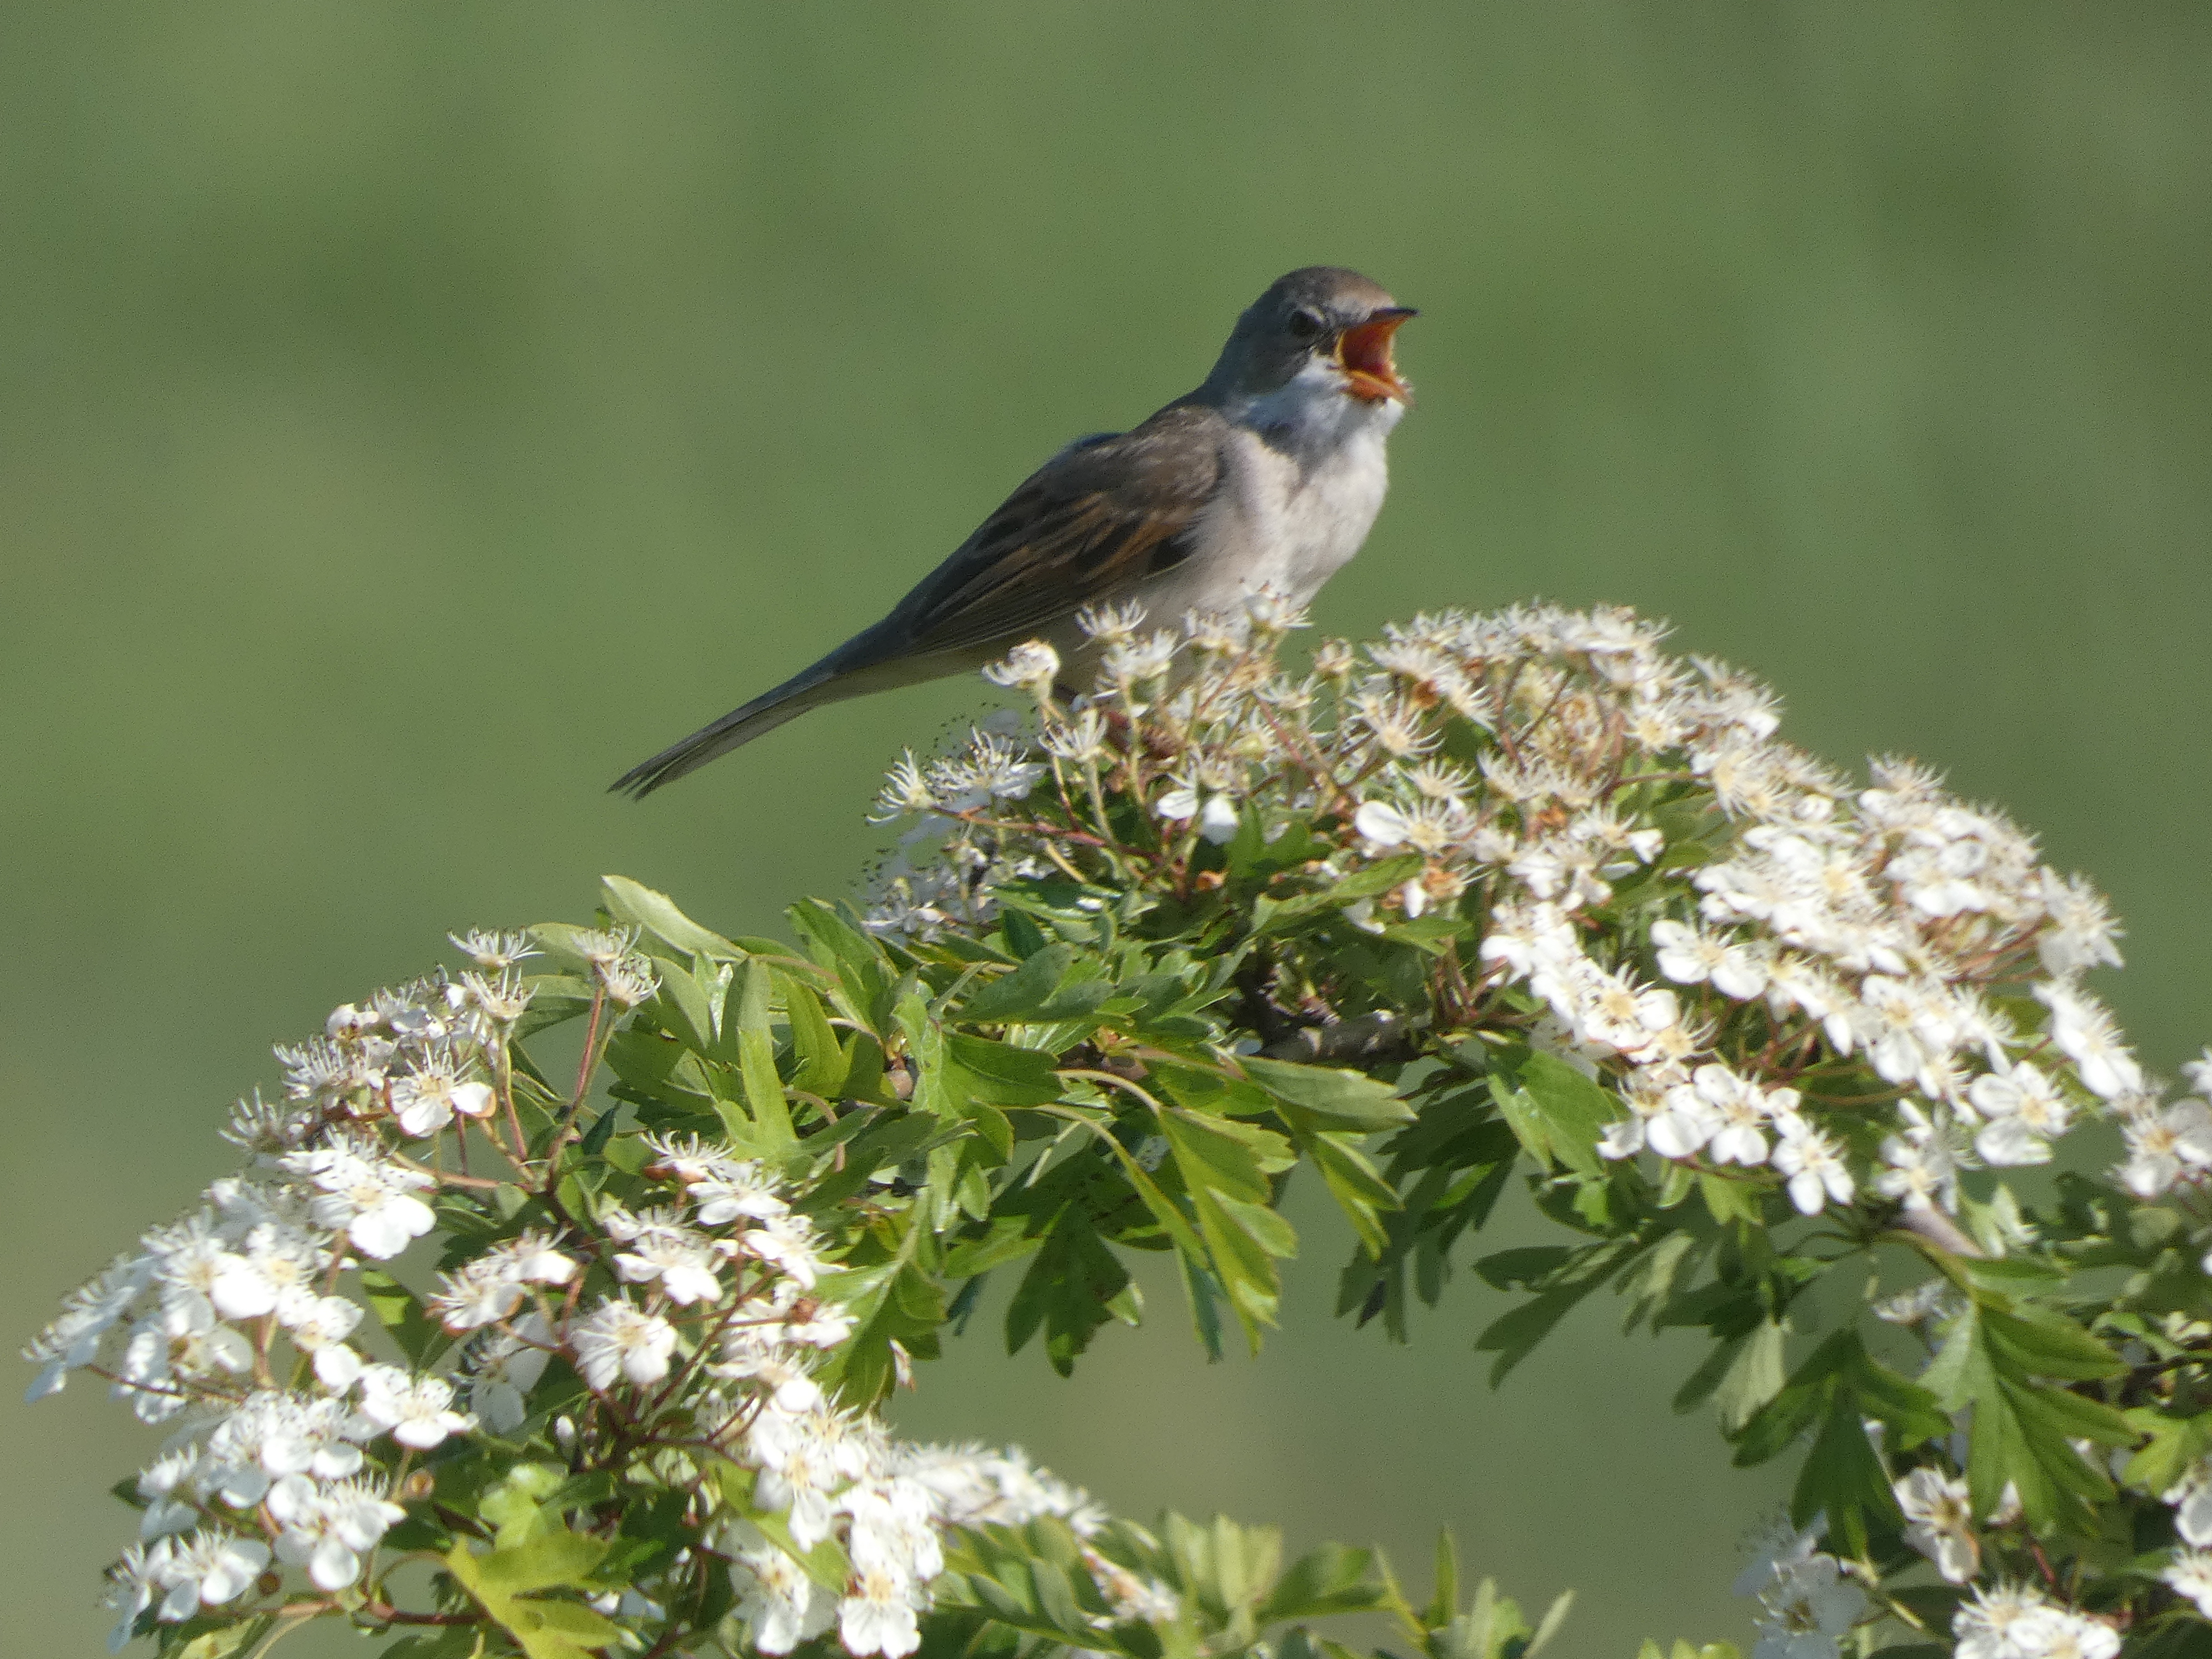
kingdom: Animalia
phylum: Chordata
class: Aves
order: Passeriformes
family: Sylviidae
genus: Sylvia
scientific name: Sylvia communis
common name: Tornsanger
